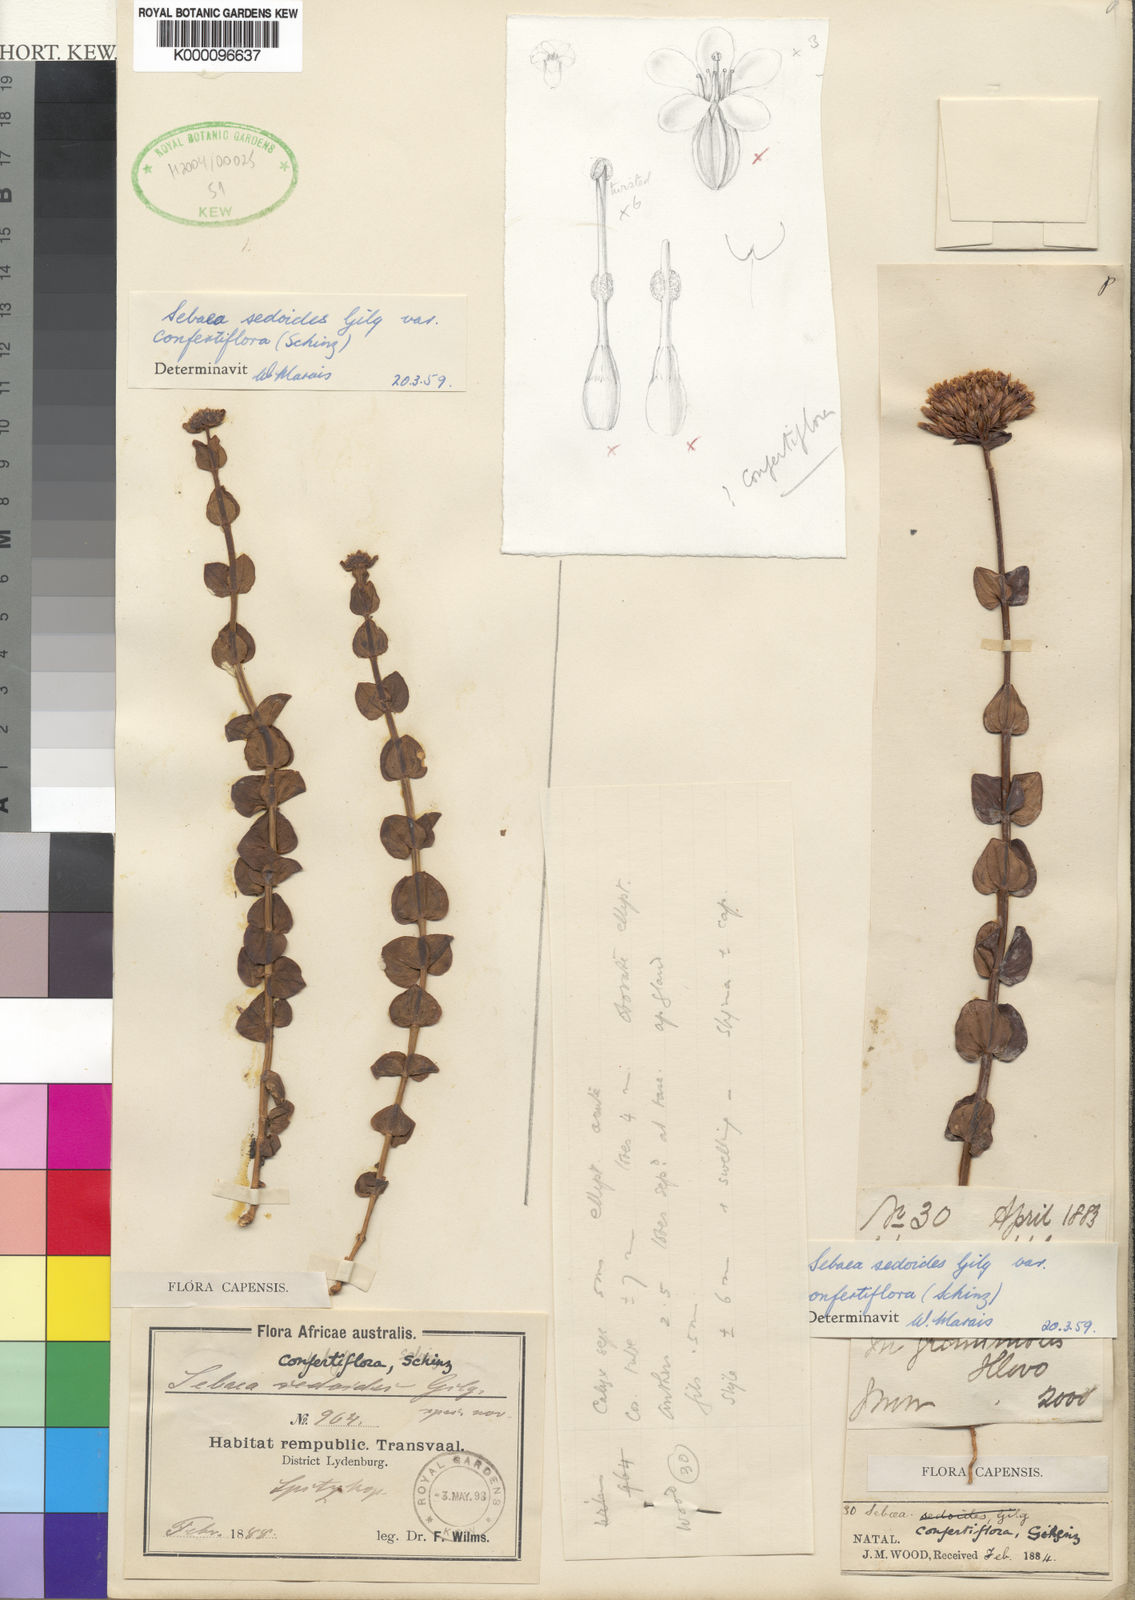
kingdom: Plantae
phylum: Tracheophyta
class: Magnoliopsida
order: Gentianales
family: Gentianaceae
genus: Sebaea
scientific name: Sebaea sedoides
